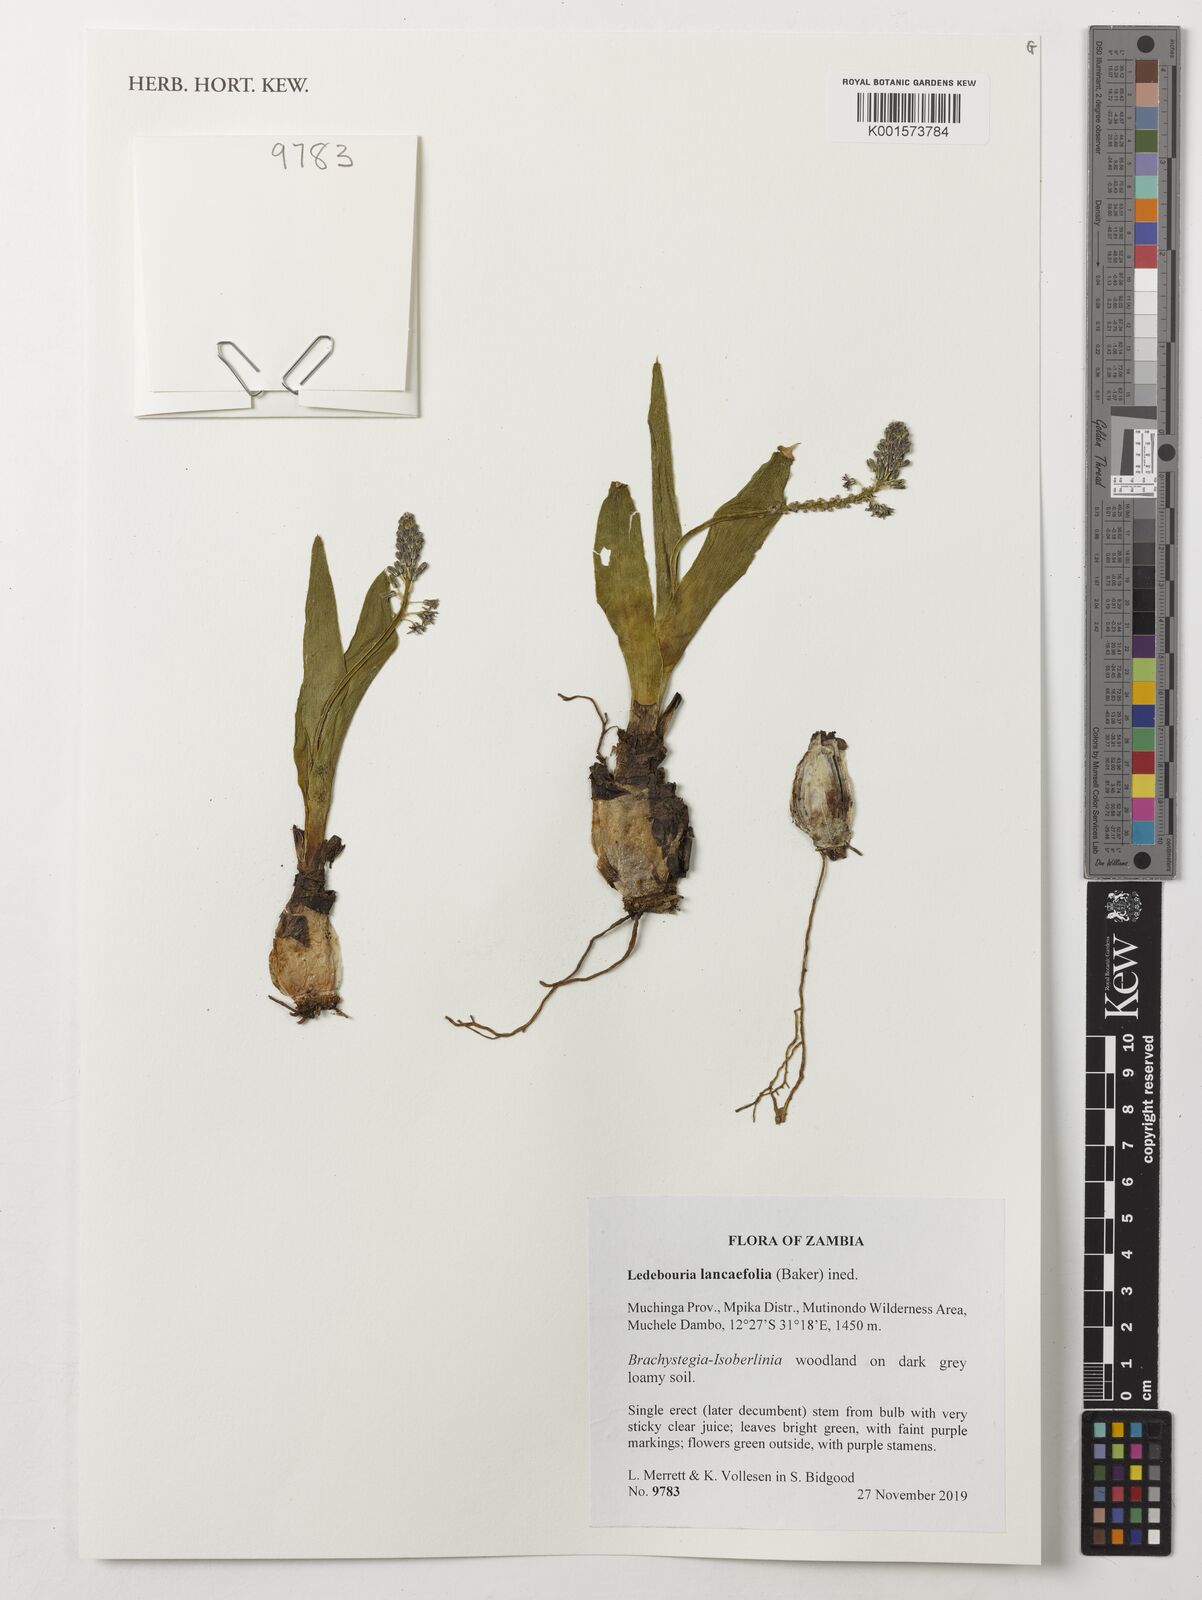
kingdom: Plantae
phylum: Tracheophyta
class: Liliopsida
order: Asparagales
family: Asparagaceae
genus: Ledebouria
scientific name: Ledebouria
